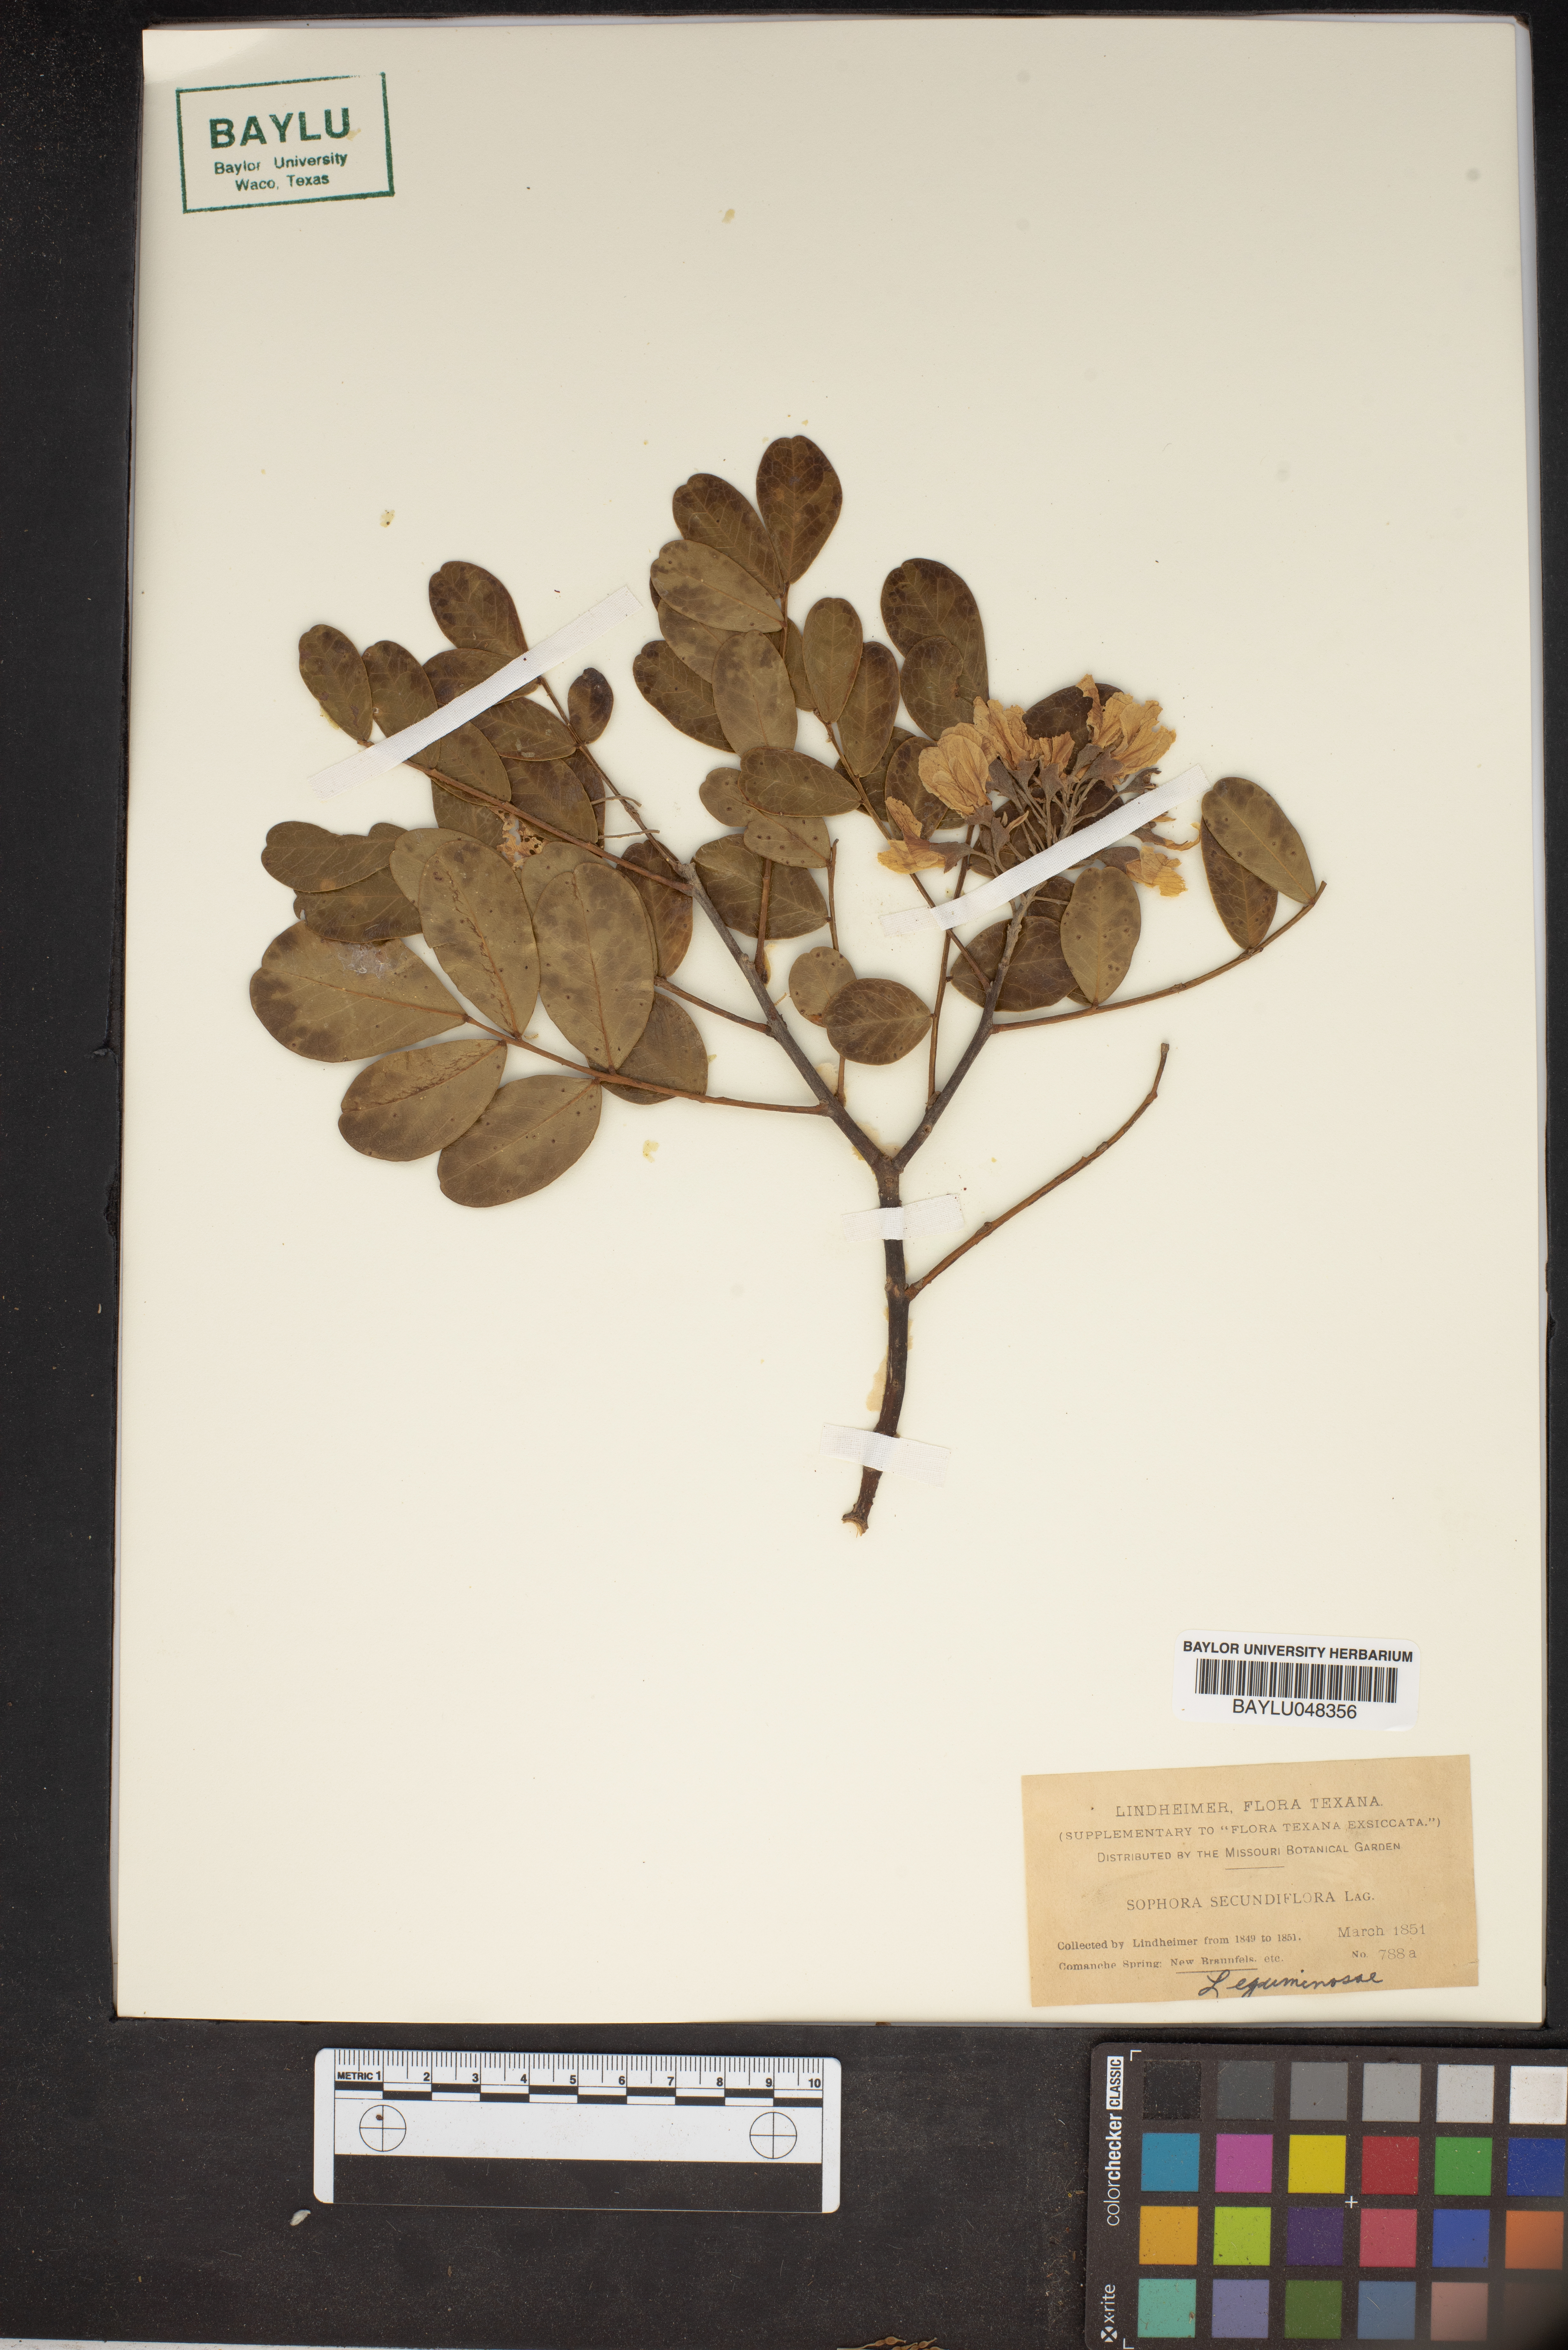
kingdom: Plantae
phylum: Tracheophyta
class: Magnoliopsida
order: Fabales
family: Fabaceae
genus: Dermatophyllum
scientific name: Dermatophyllum secundiflorum
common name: Texas-mountain-laurel
